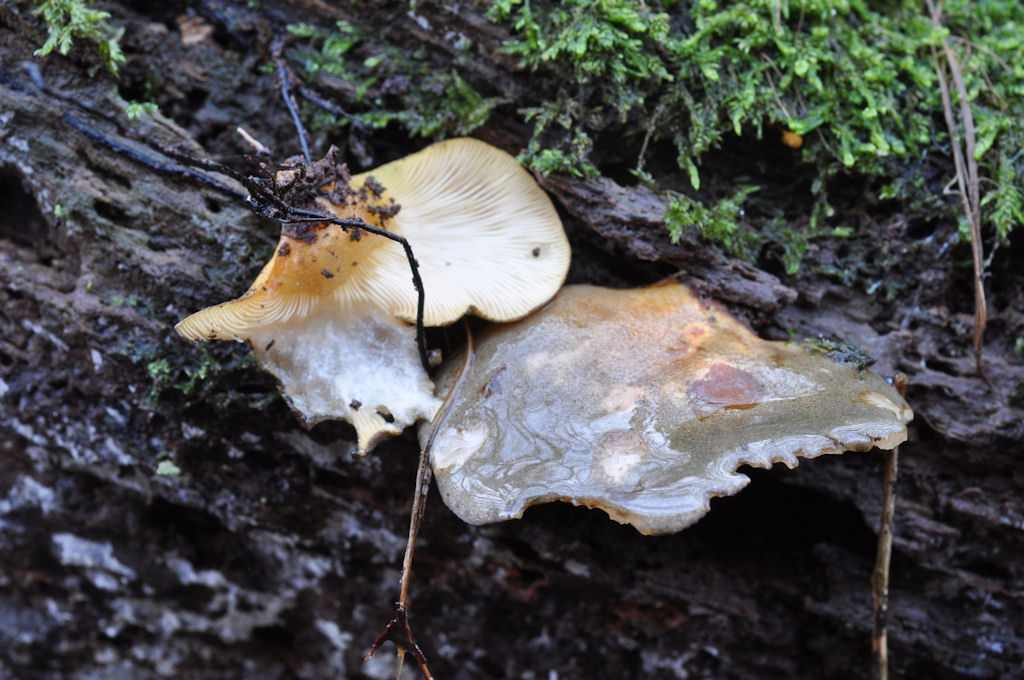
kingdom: Fungi
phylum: Basidiomycota
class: Agaricomycetes
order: Agaricales
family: Sarcomyxaceae
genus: Sarcomyxa
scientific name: Sarcomyxa serotina
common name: gummihat
